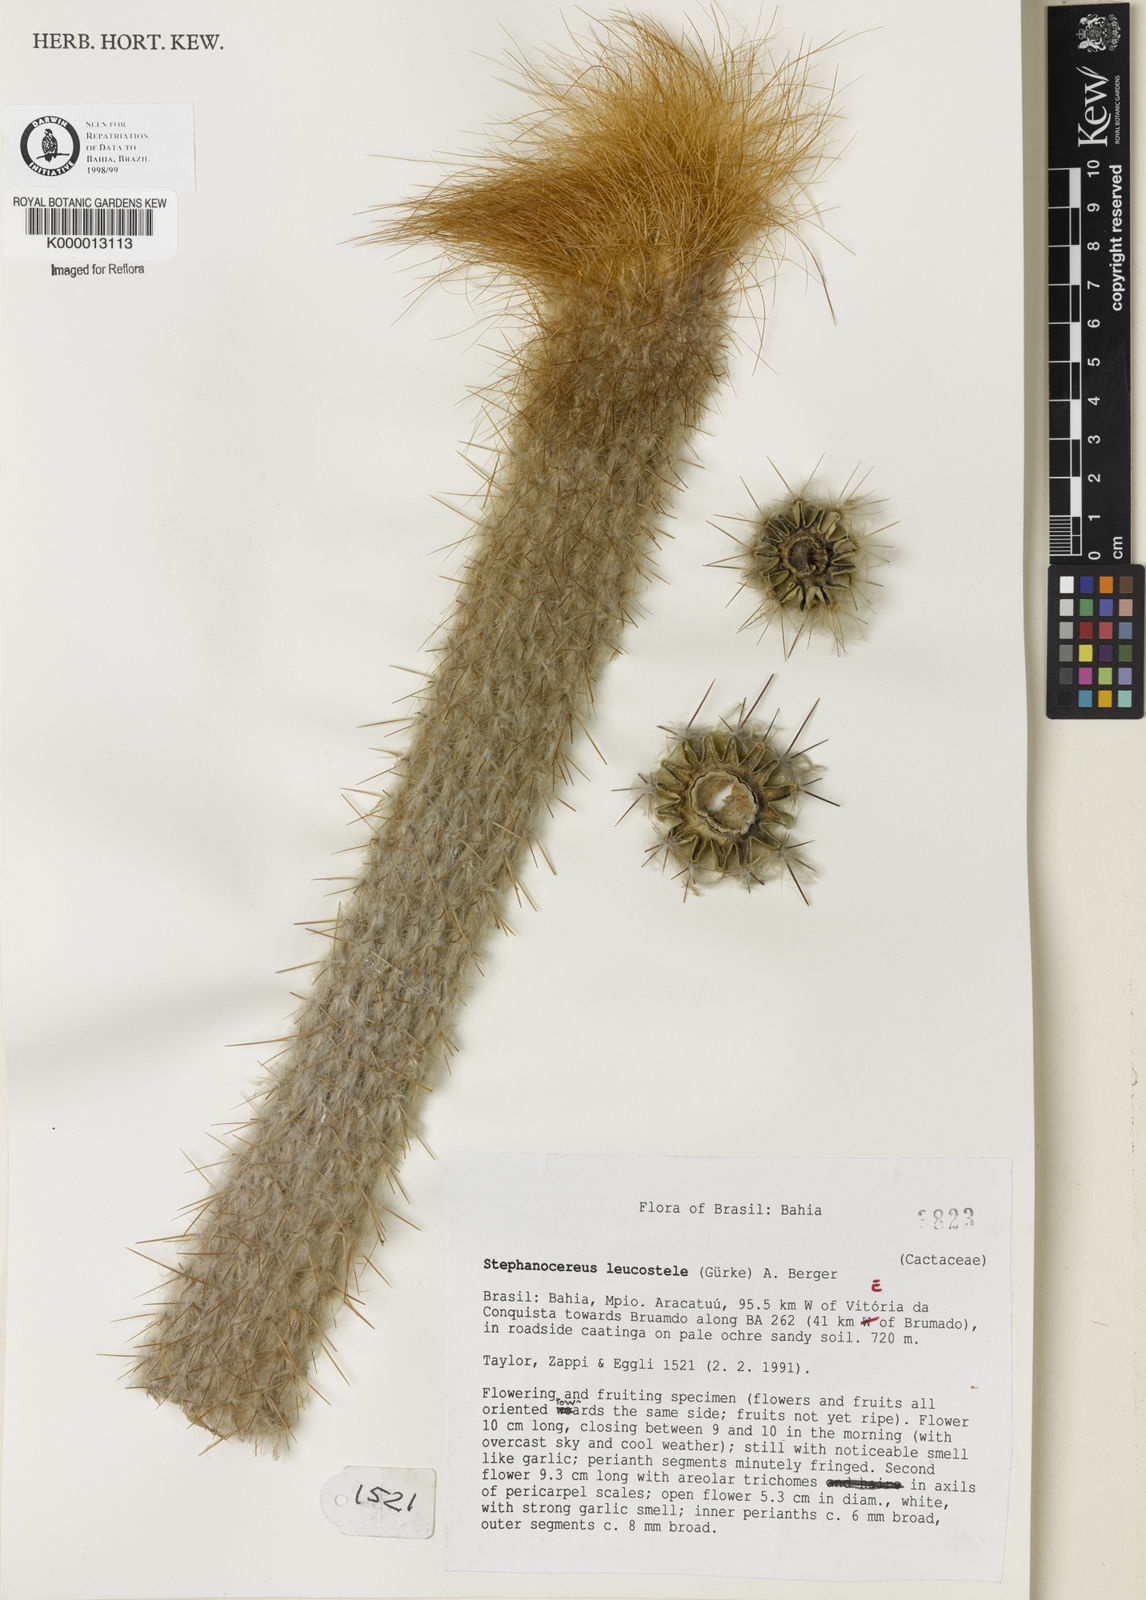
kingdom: Plantae
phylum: Tracheophyta
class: Magnoliopsida
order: Caryophyllales
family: Cactaceae
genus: Arrojadoa
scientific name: Arrojadoa leucostele
